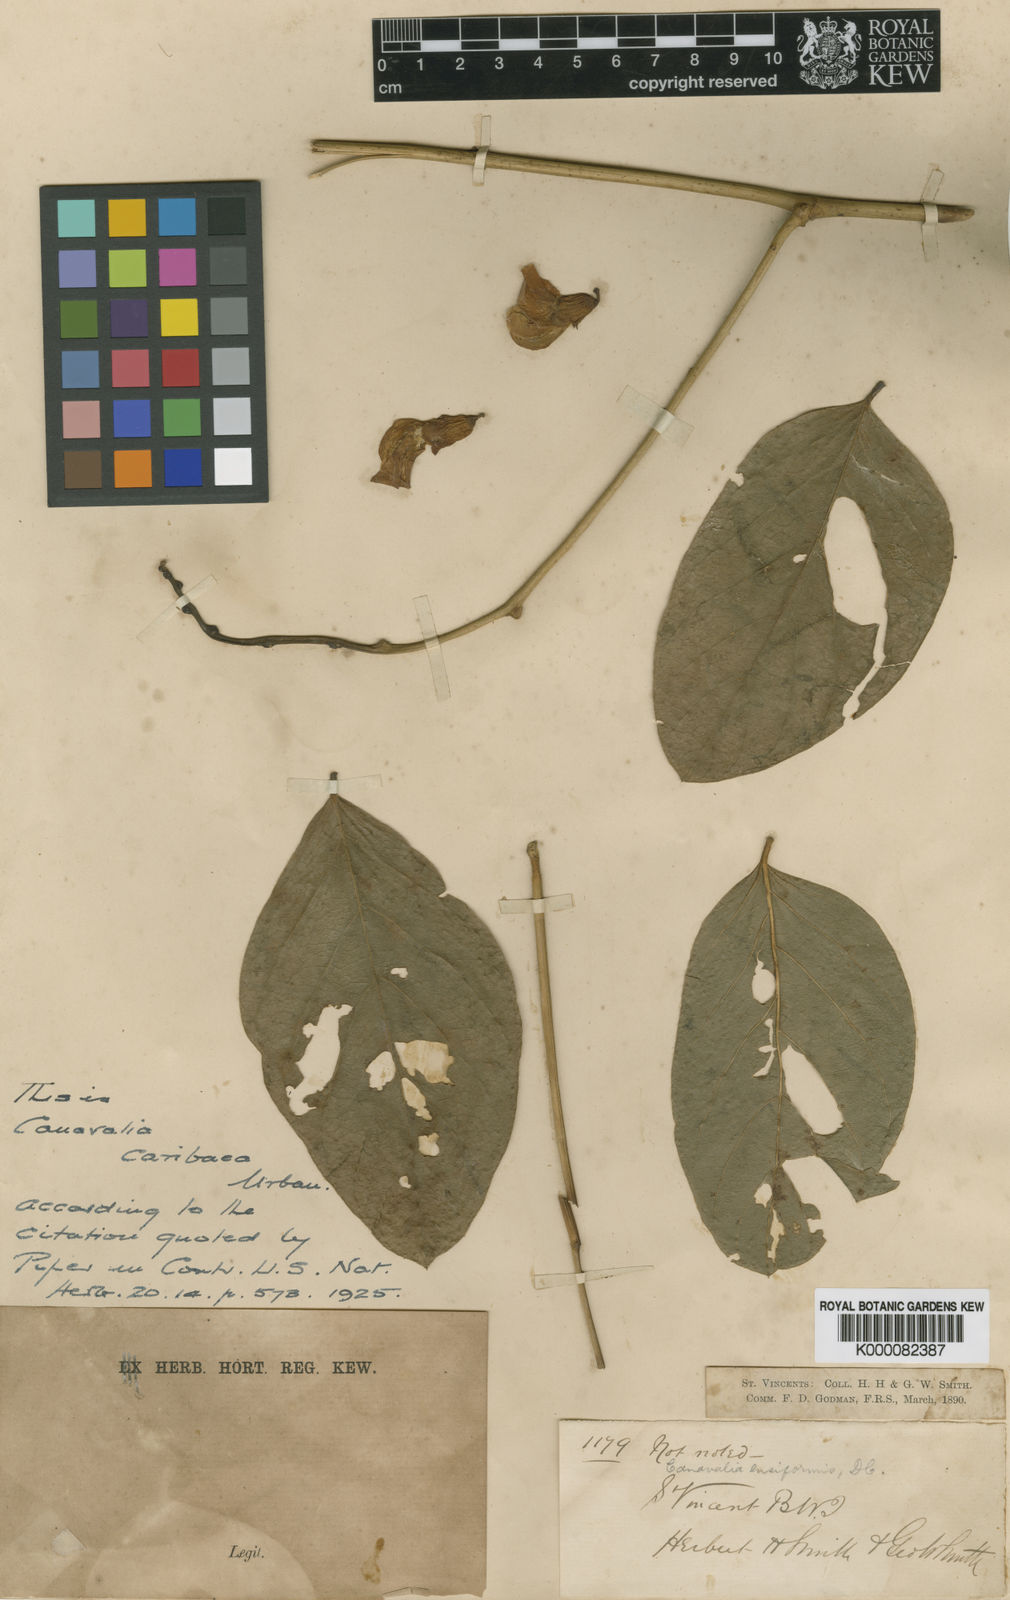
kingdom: Plantae
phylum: Tracheophyta
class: Magnoliopsida
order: Fabales
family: Fabaceae
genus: Canavalia
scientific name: Canavalia brasiliensis
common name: Barbicou-bean
